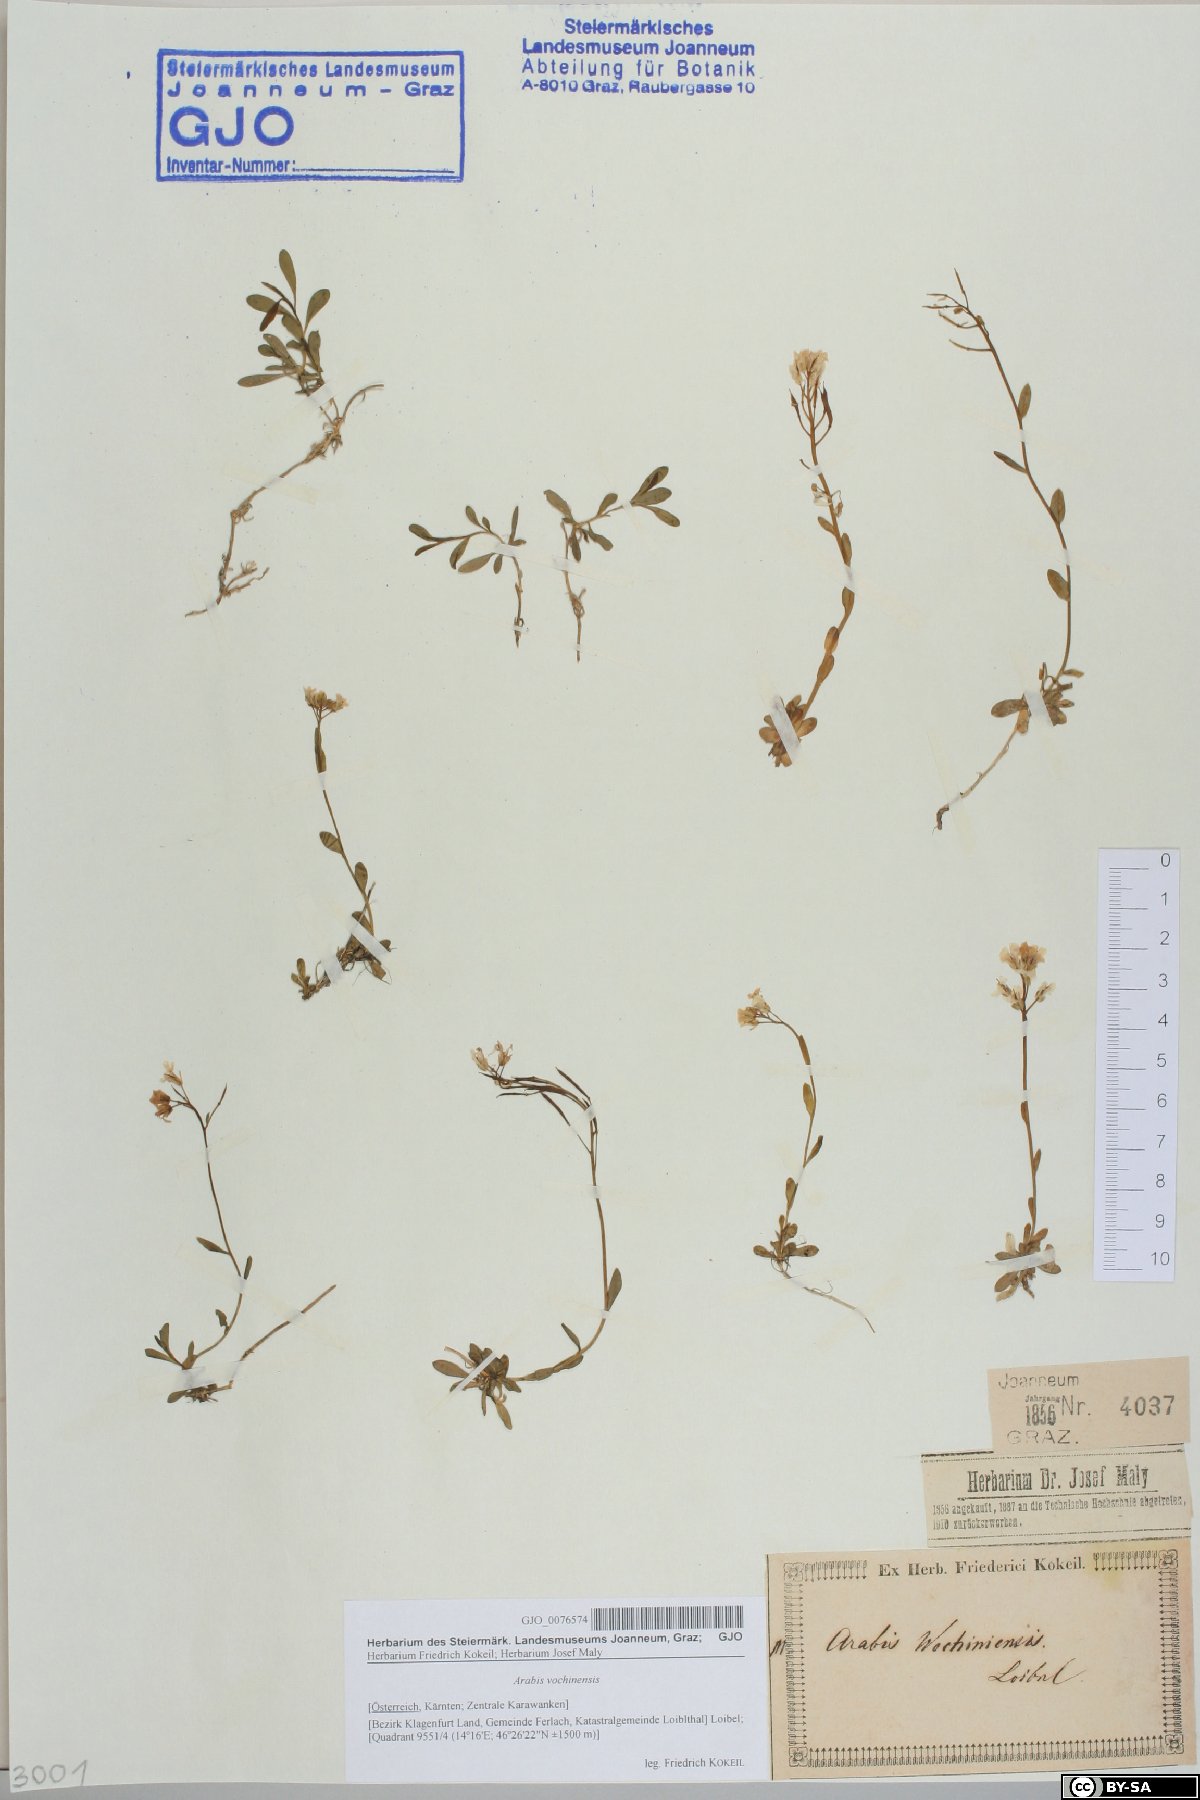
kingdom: Plantae
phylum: Tracheophyta
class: Magnoliopsida
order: Brassicales
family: Brassicaceae
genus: Arabis
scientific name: Arabis vochinensis
